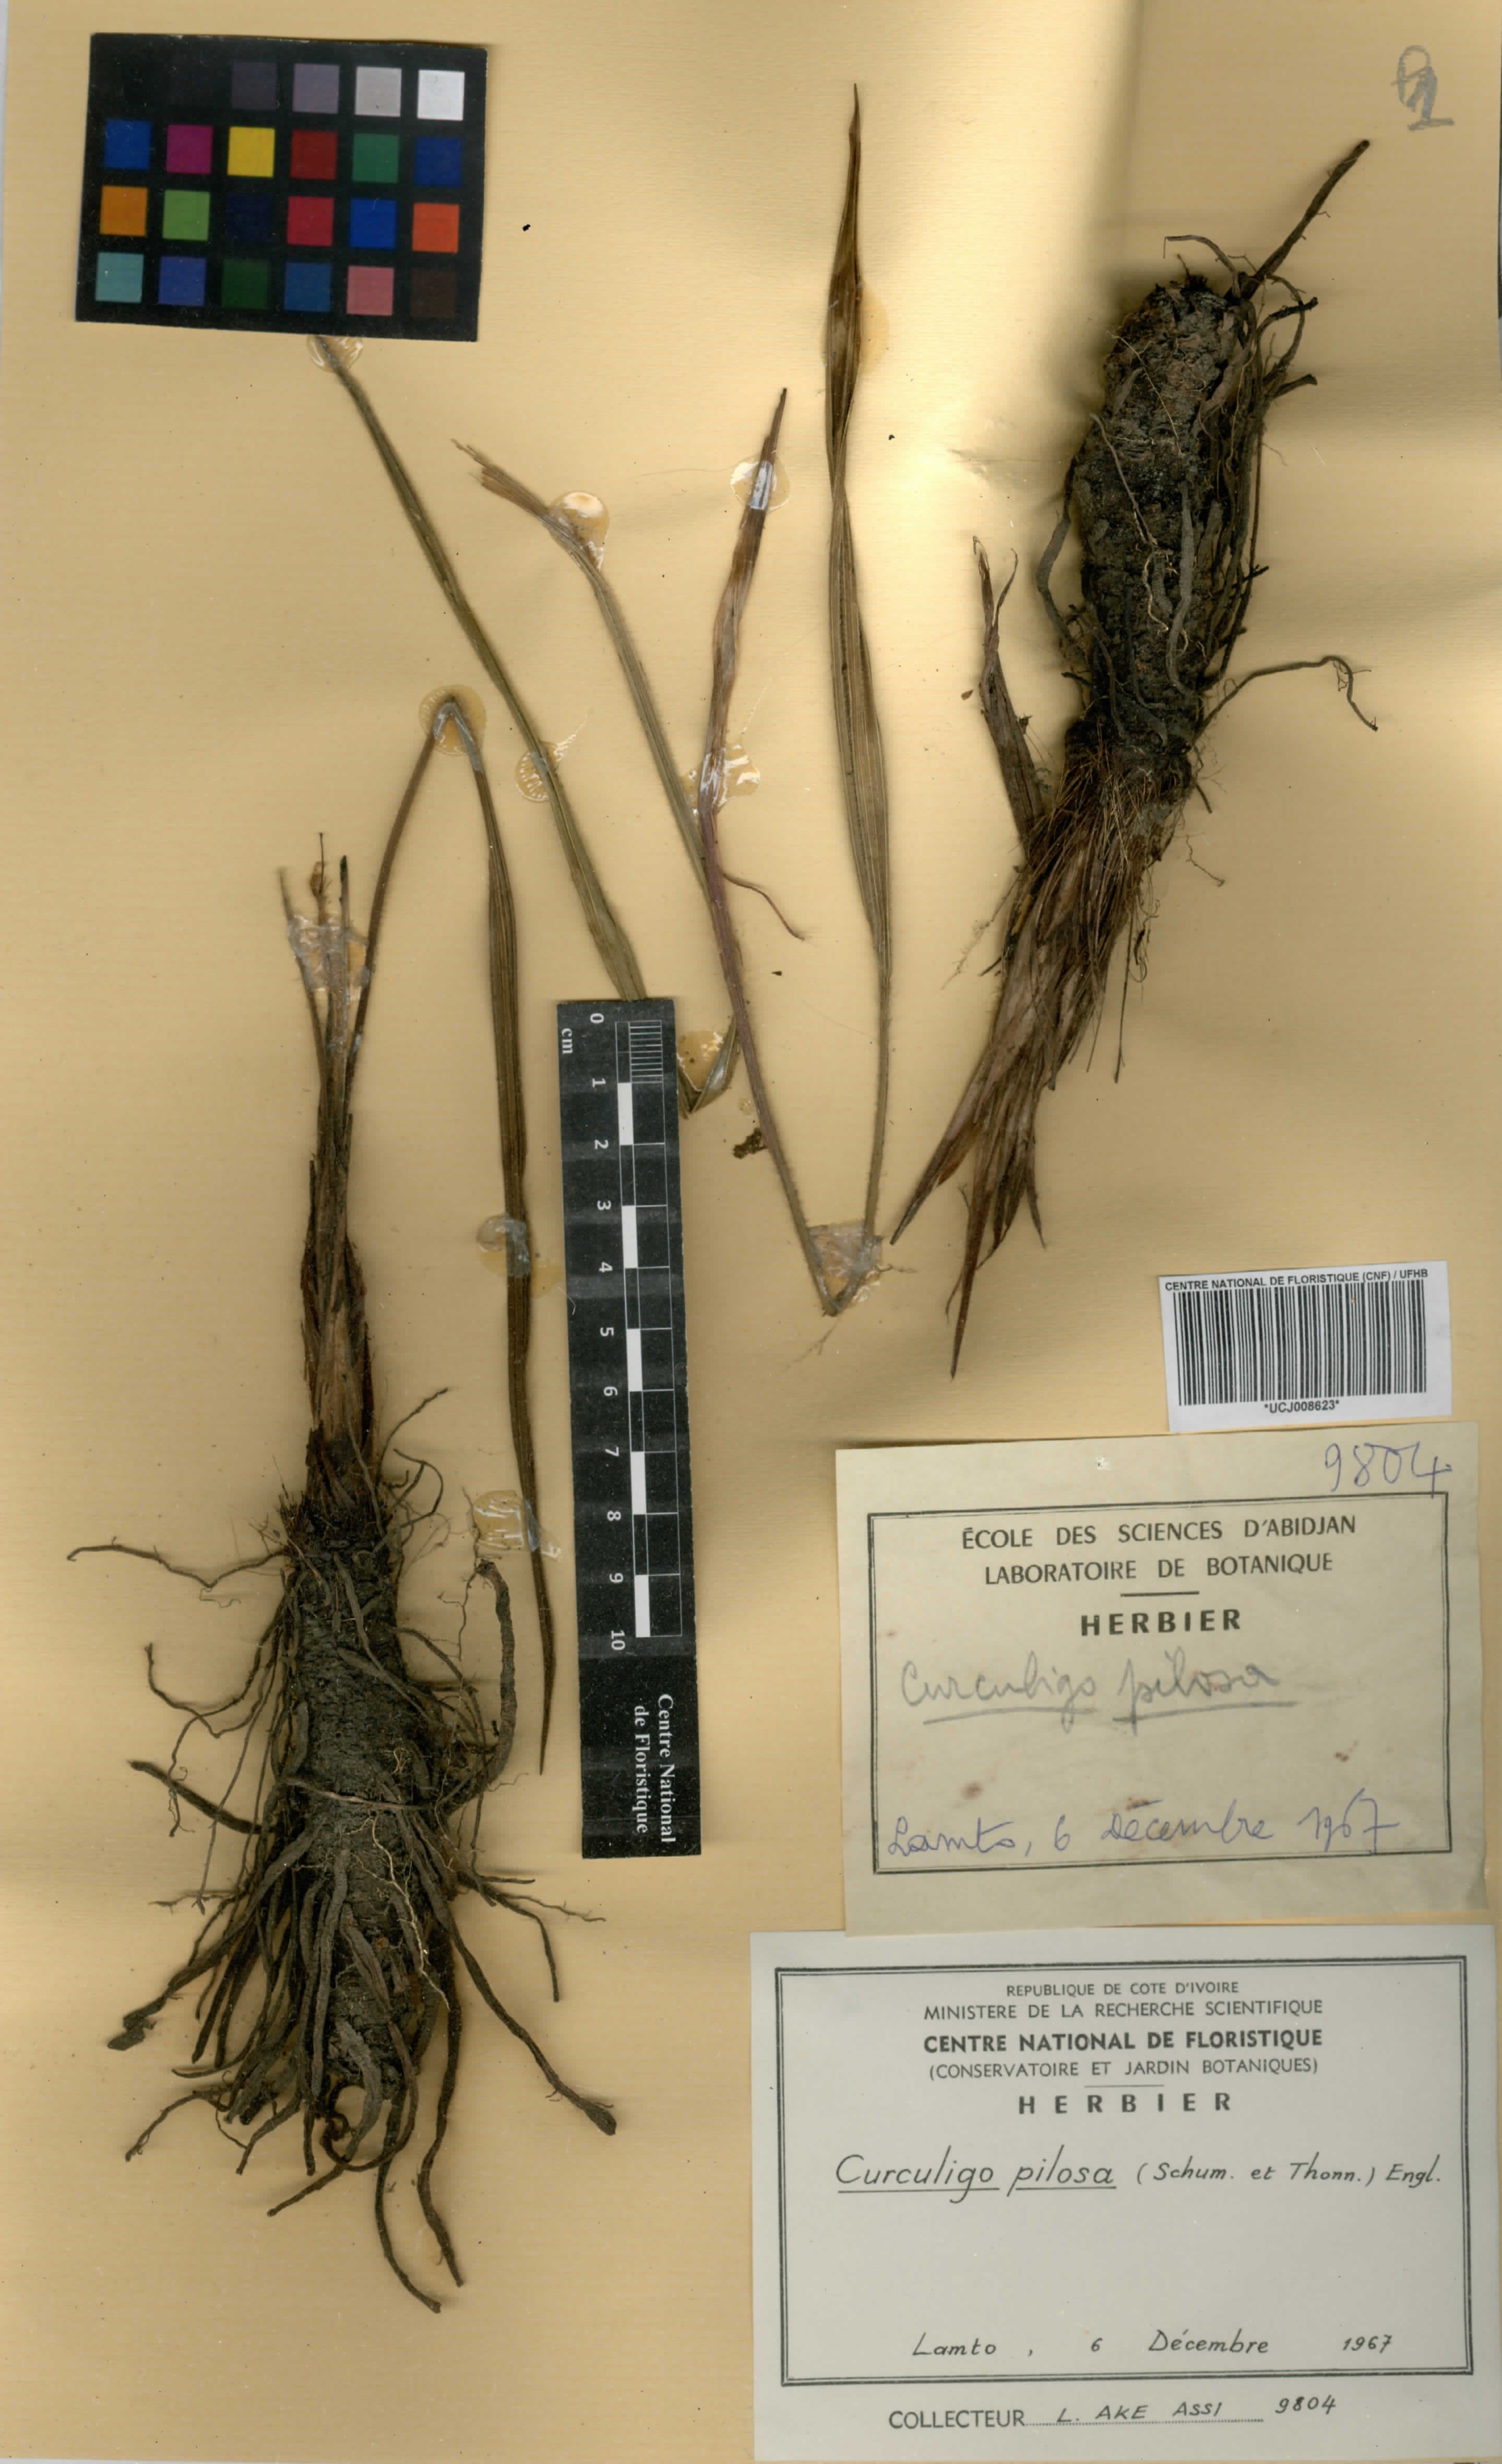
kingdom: Plantae
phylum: Tracheophyta
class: Liliopsida
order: Asparagales
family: Hypoxidaceae
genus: Curculigo
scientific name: Curculigo pilosa
